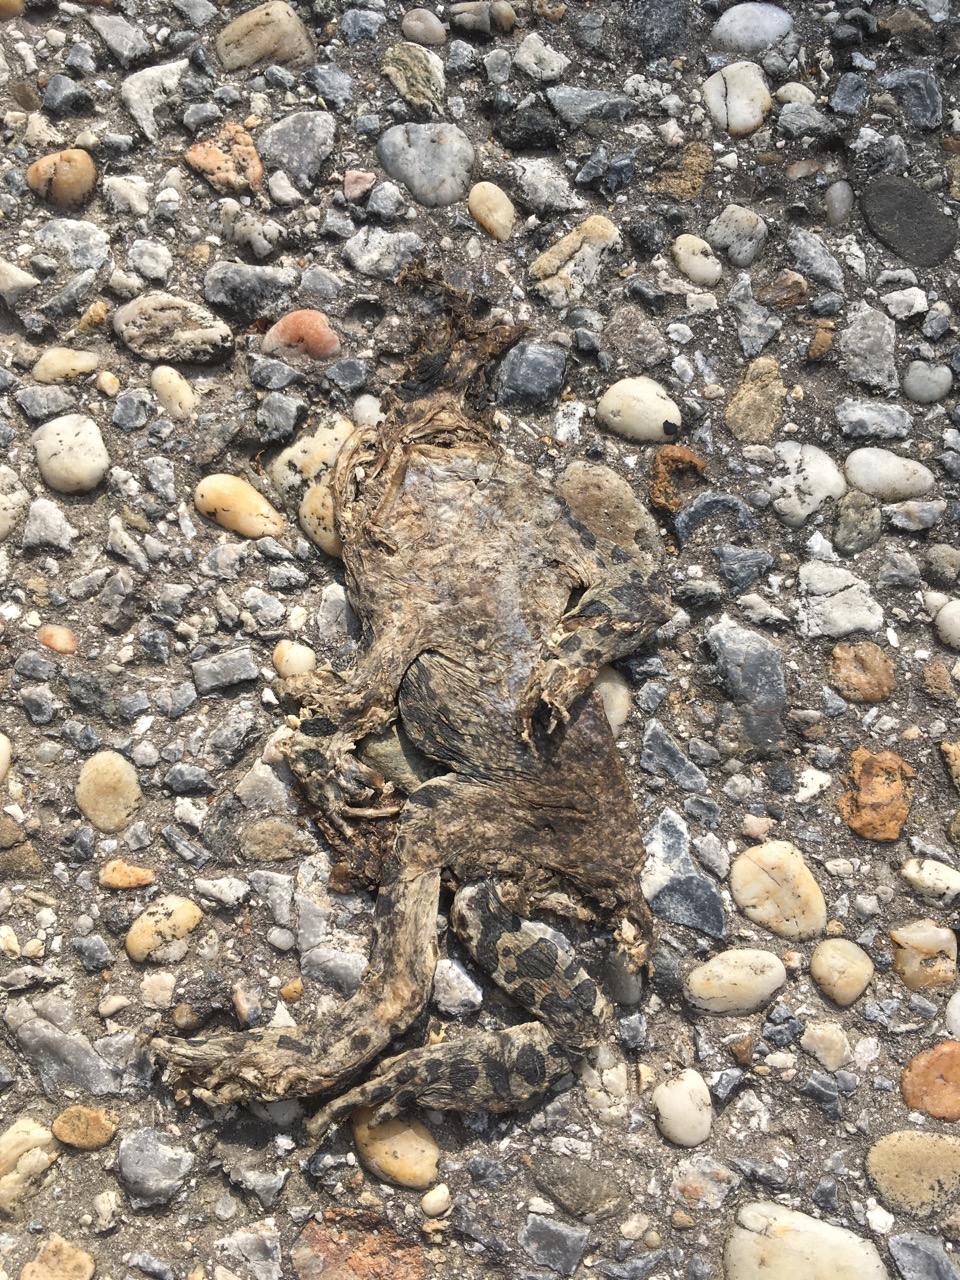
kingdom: Animalia
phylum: Chordata
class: Amphibia
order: Anura
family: Bufonidae
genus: Bufotes
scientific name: Bufotes viridis
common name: European green toad
